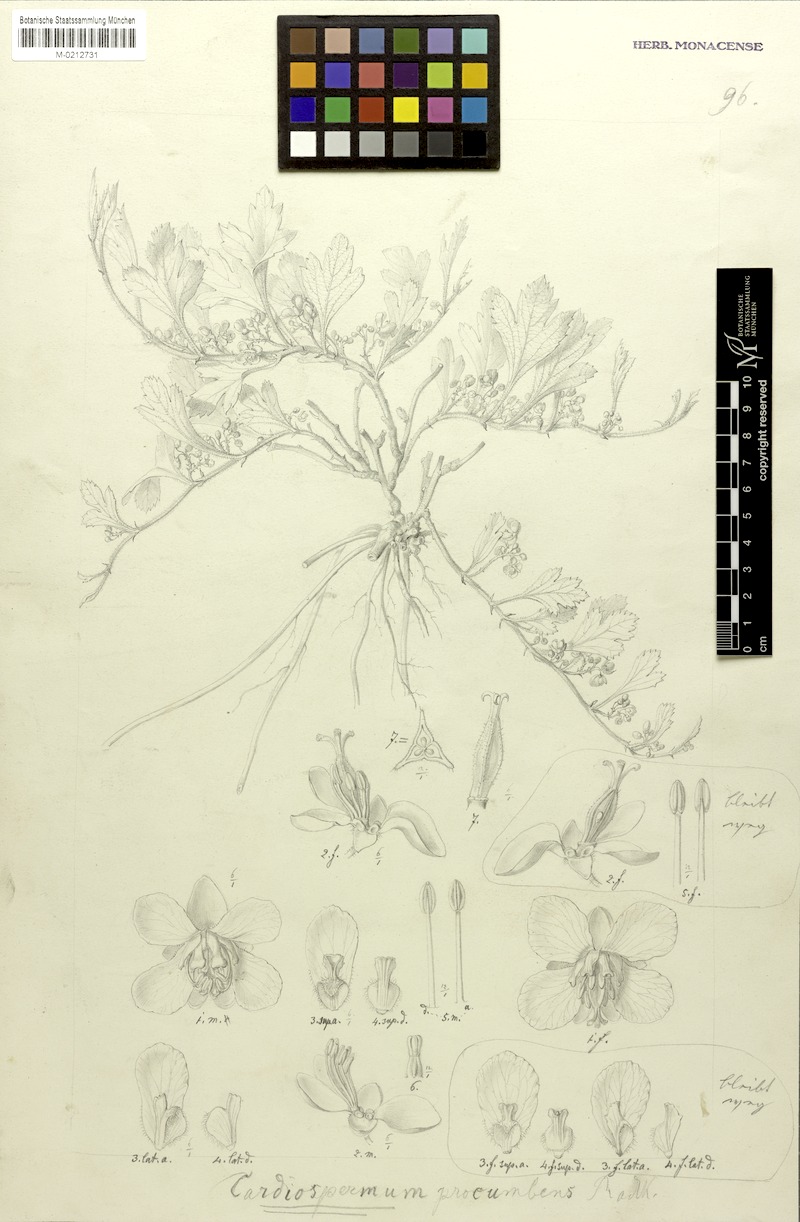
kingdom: Plantae
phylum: Tracheophyta
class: Magnoliopsida
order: Sapindales
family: Sapindaceae
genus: Urvillea
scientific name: Urvillea procumbens
